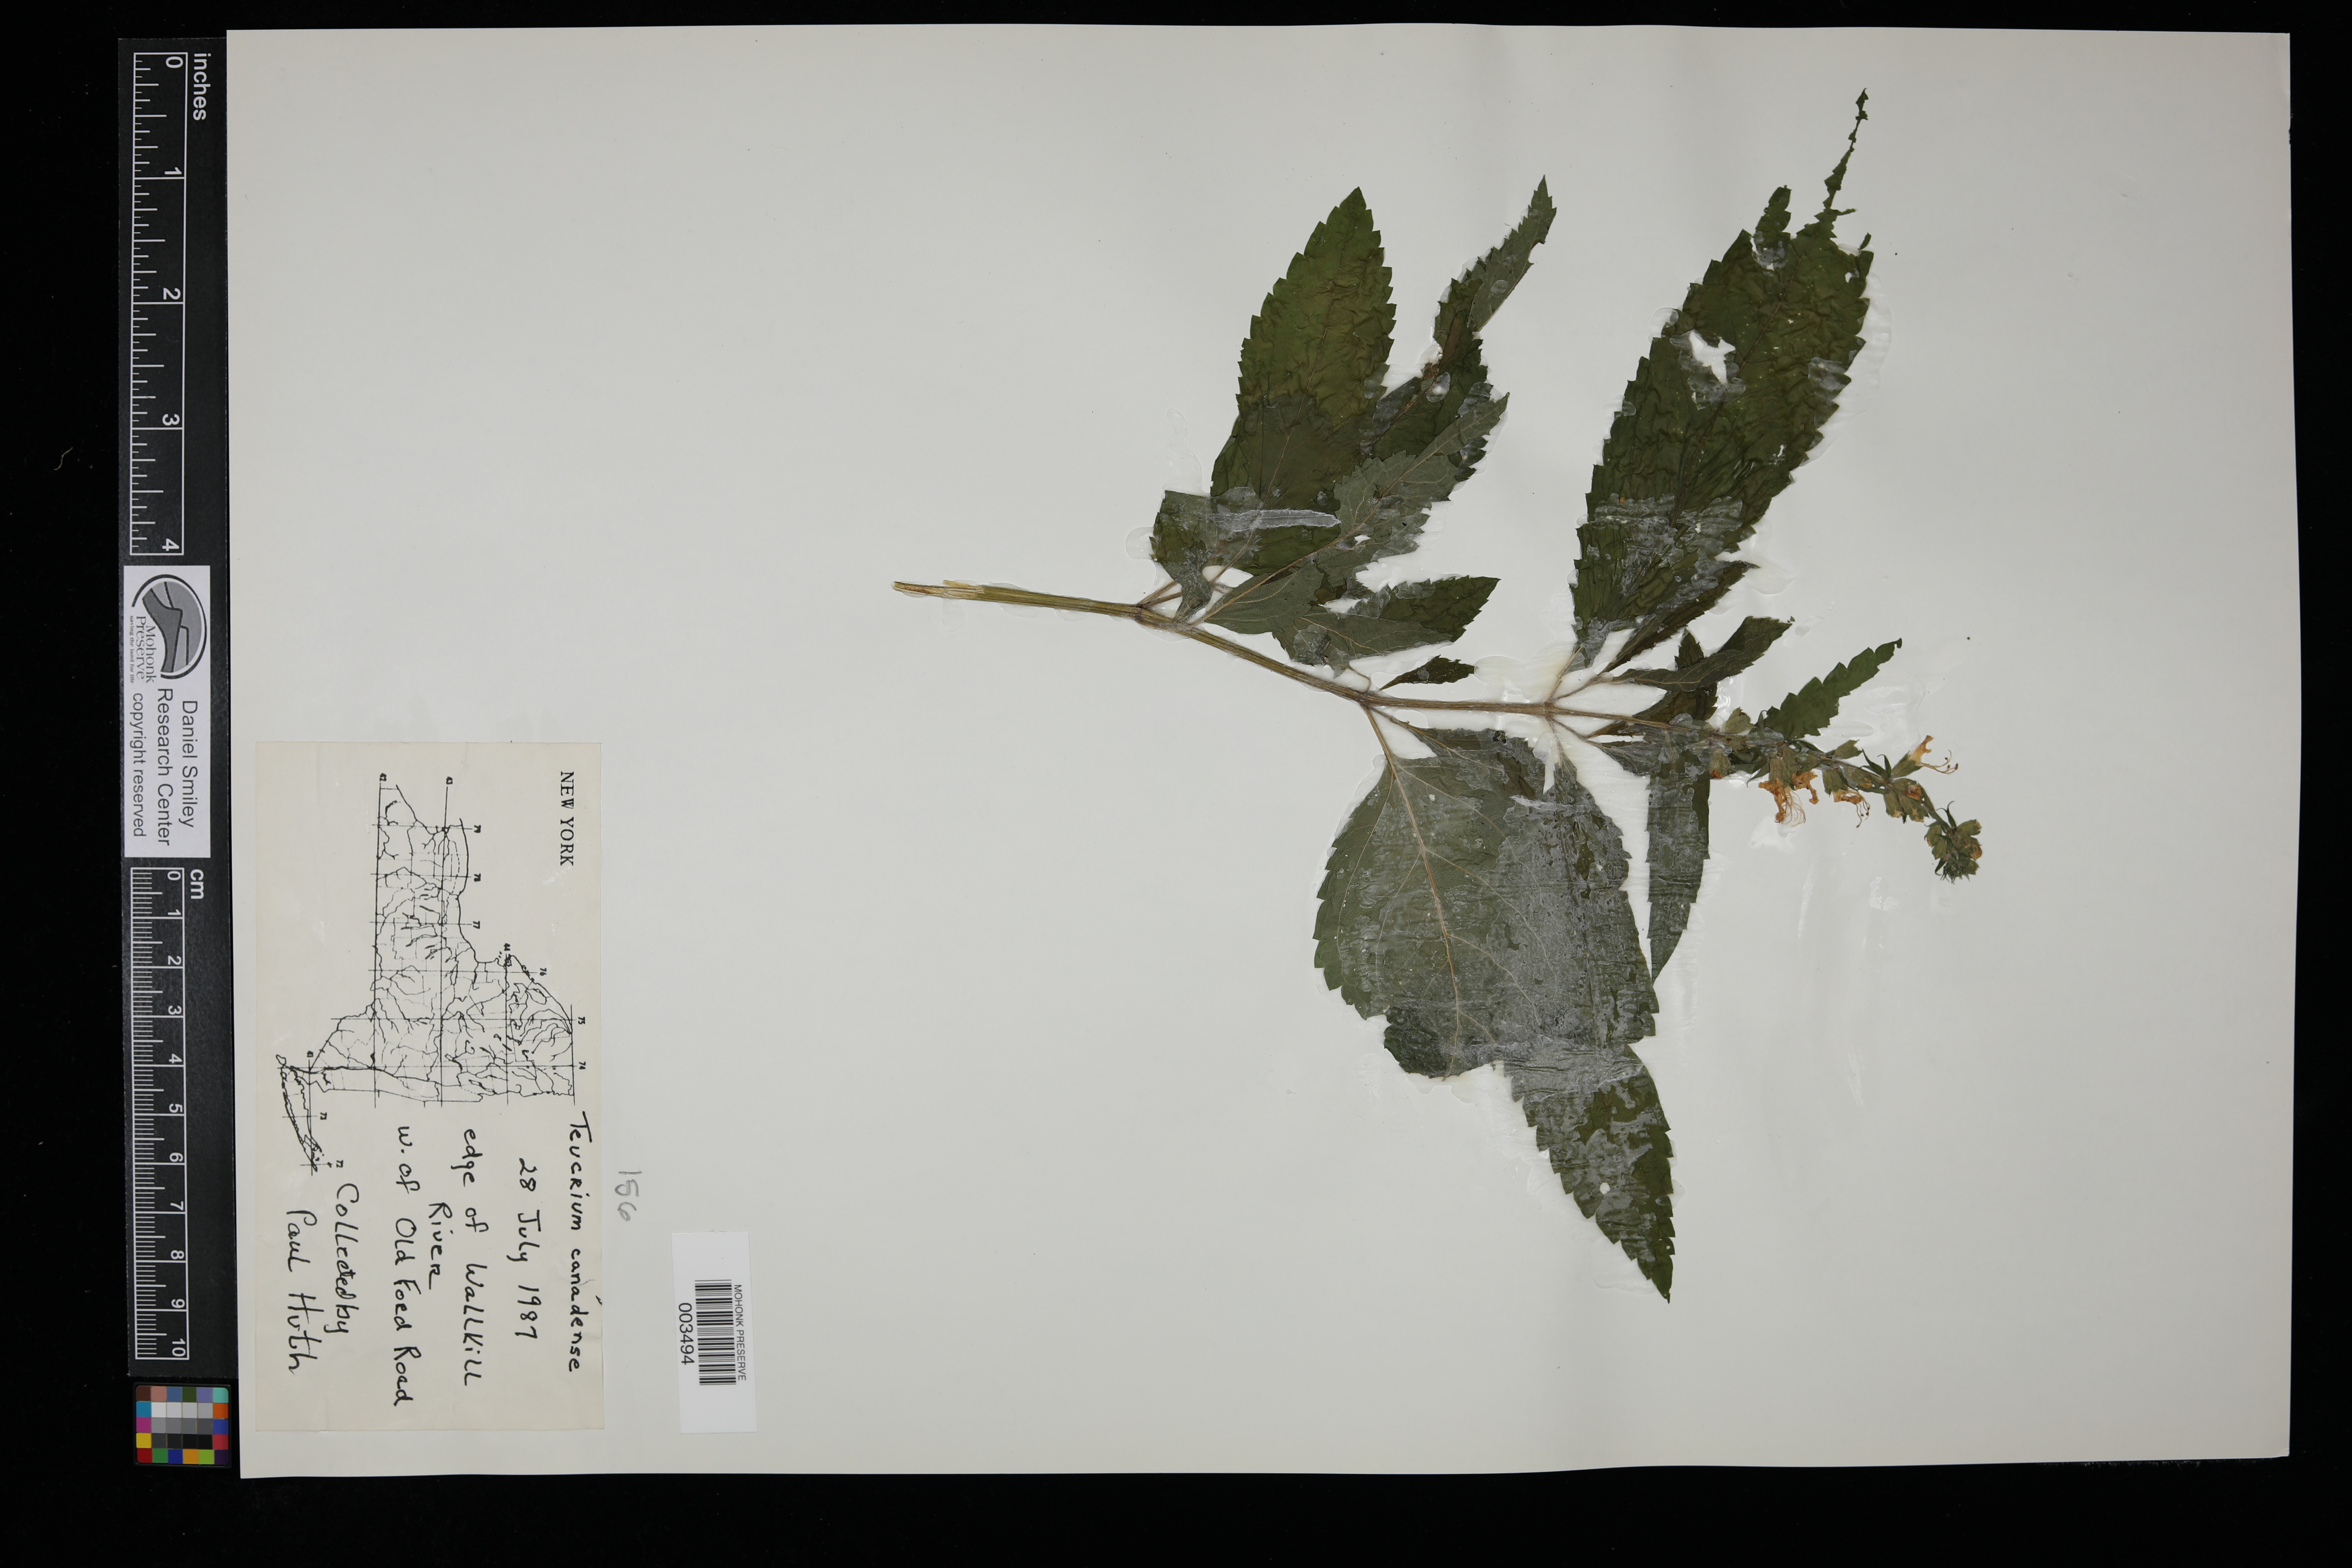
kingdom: Plantae
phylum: Tracheophyta
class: Magnoliopsida
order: Lamiales
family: Lamiaceae
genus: Teucrium
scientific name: Teucrium canadense
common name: American germander
